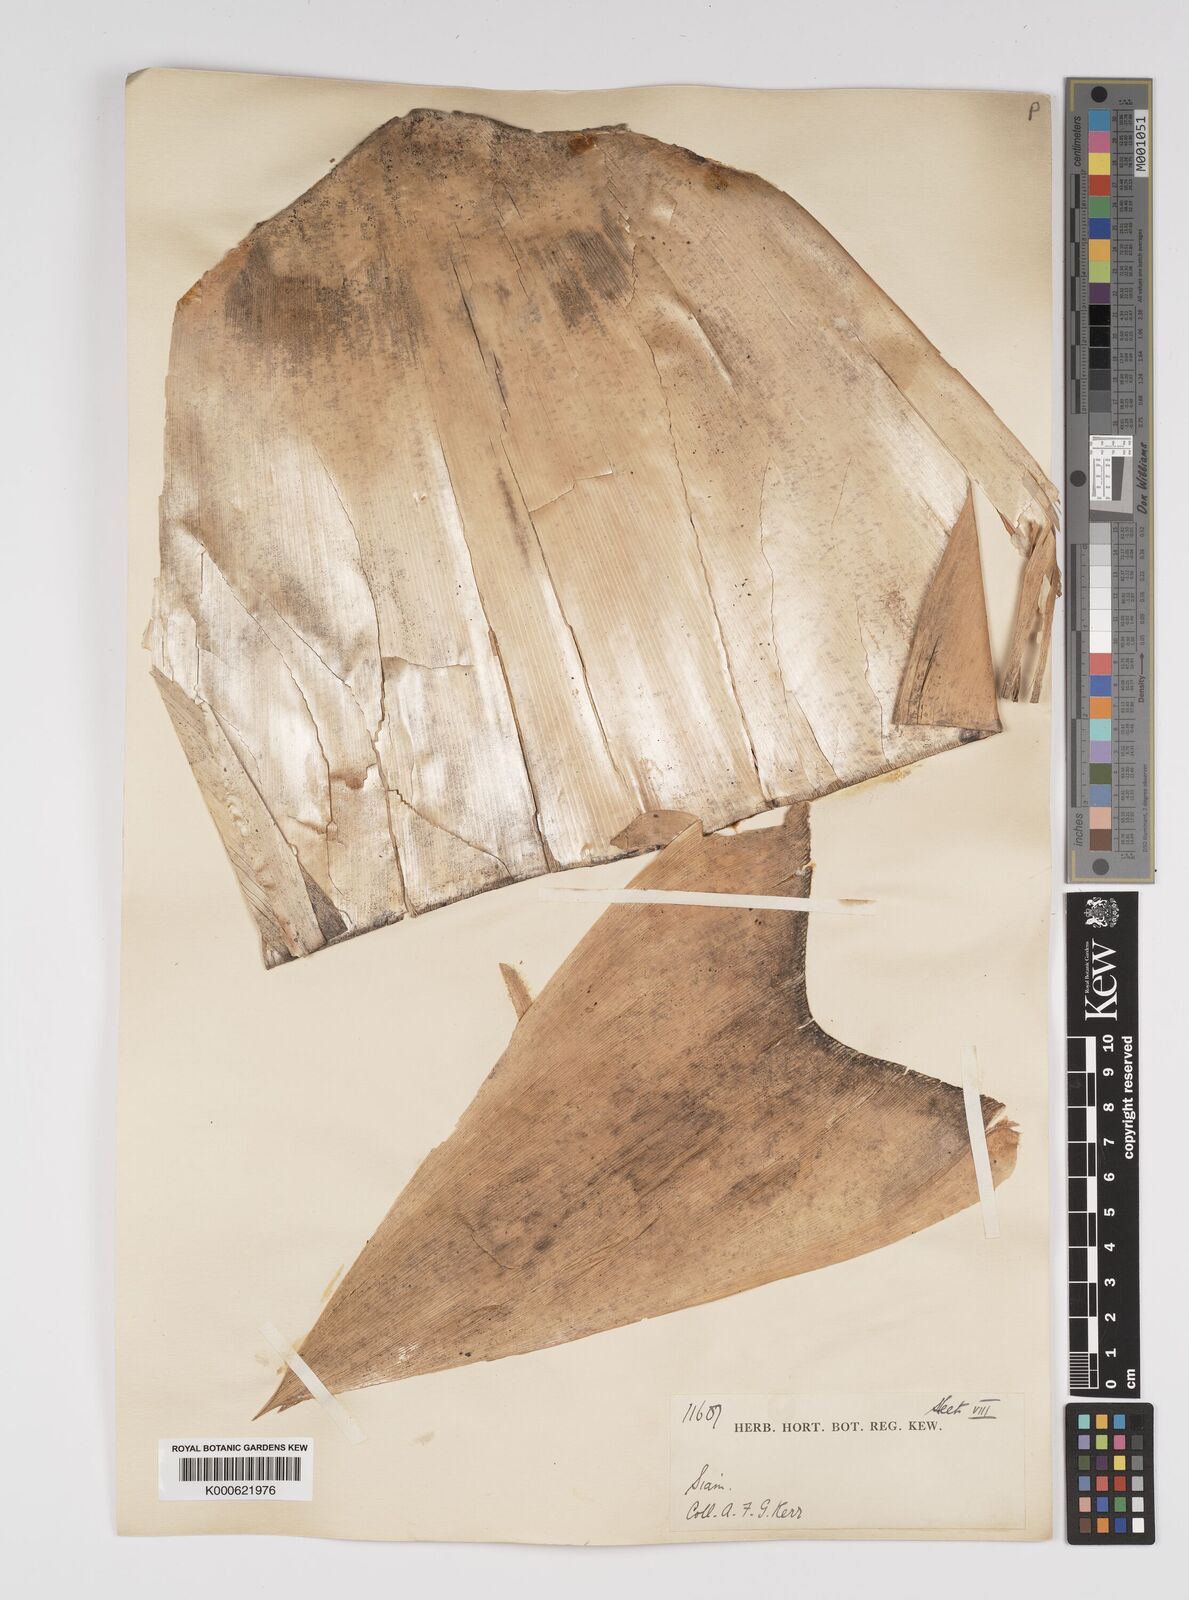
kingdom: Plantae
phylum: Tracheophyta
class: Liliopsida
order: Poales
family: Poaceae
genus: Bambusa
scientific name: Bambusa
